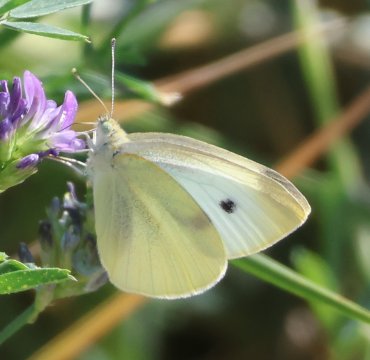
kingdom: Animalia
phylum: Arthropoda
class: Insecta
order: Lepidoptera
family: Pieridae
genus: Pieris
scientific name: Pieris rapae
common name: Cabbage White
